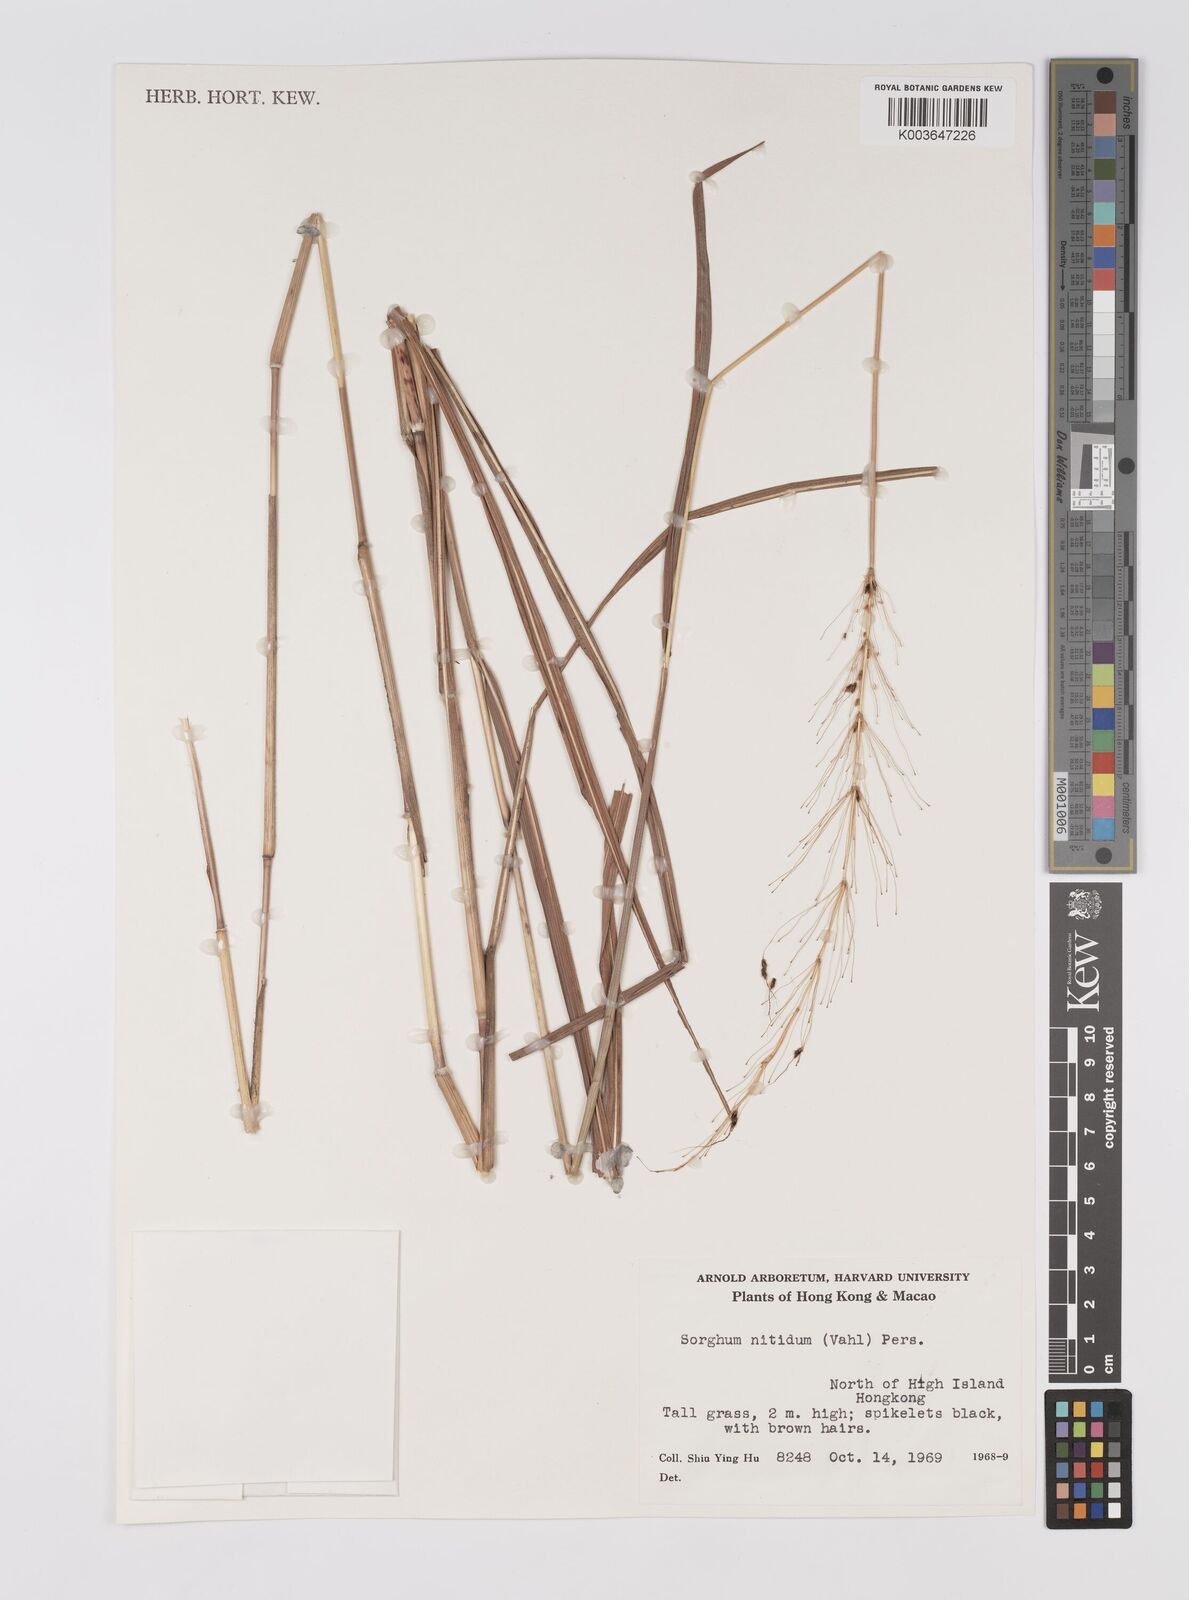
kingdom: Plantae
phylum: Tracheophyta
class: Liliopsida
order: Poales
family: Poaceae
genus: Sorghum
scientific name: Sorghum nitidum
